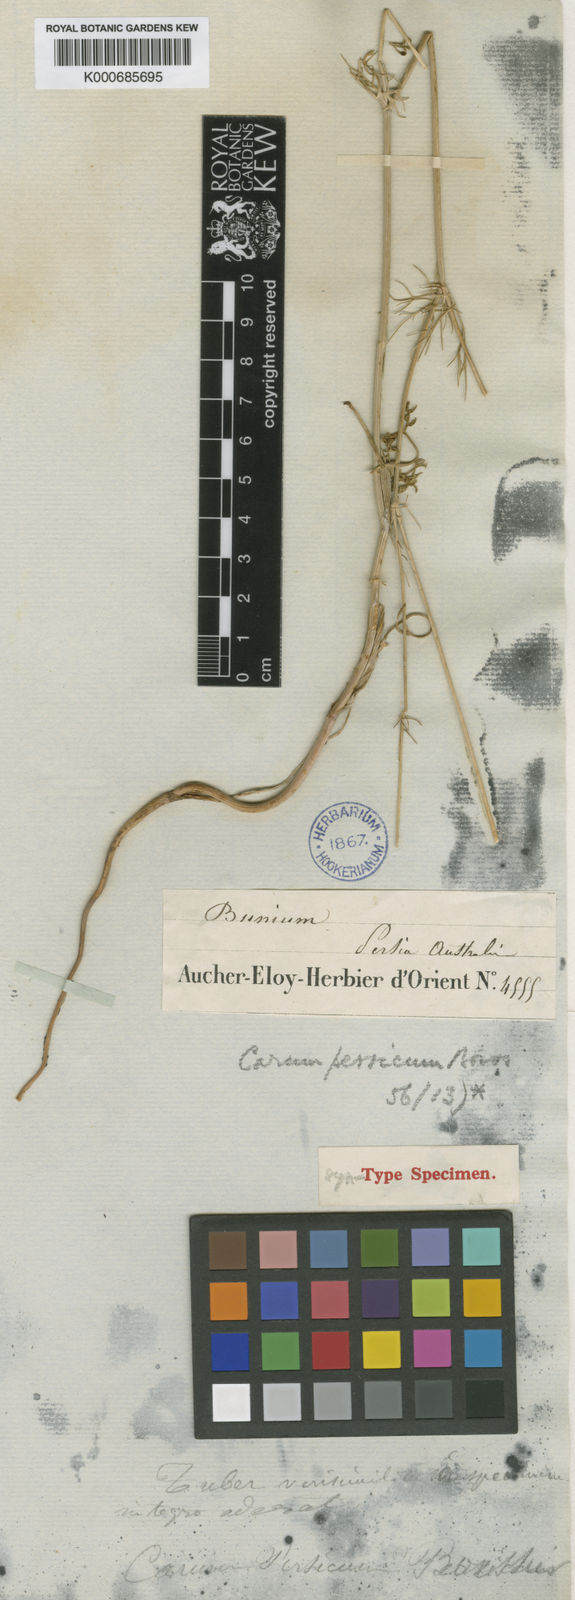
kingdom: Plantae
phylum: Tracheophyta
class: Magnoliopsida
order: Apiales
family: Apiaceae
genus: Elwendia
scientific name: Elwendia persica
